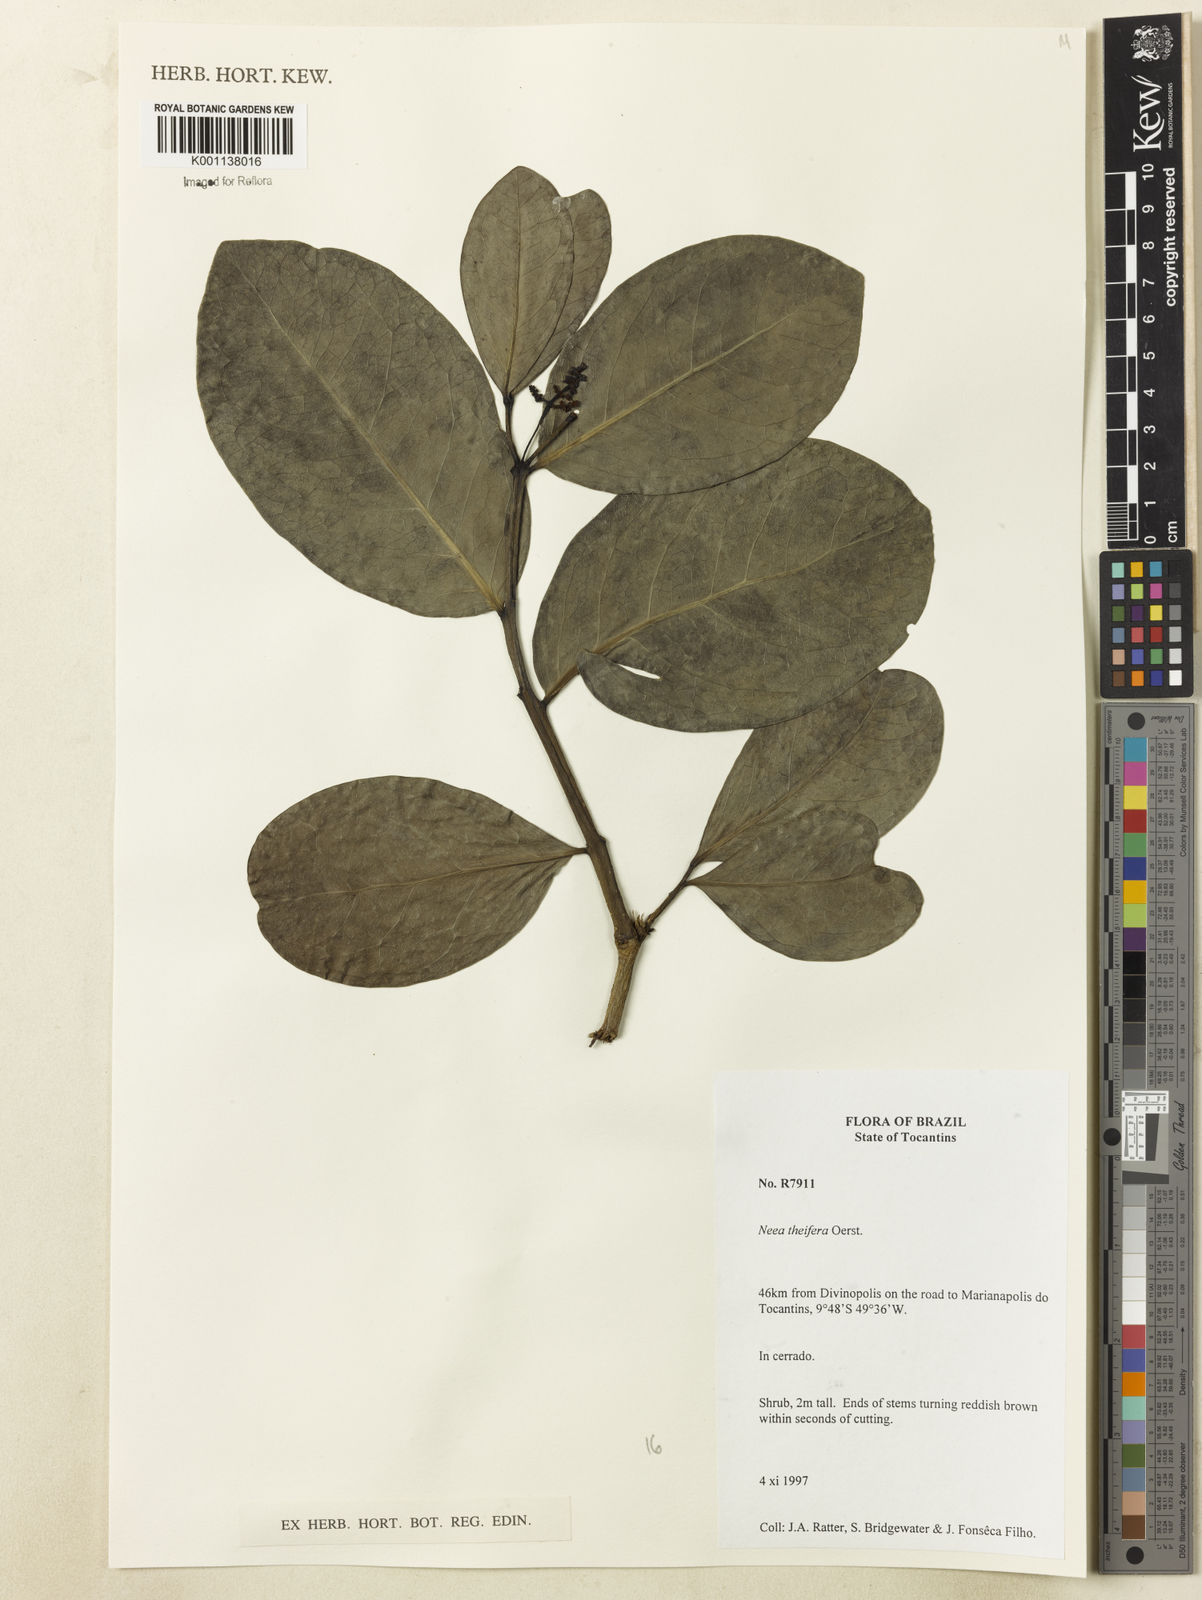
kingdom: Plantae
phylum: Tracheophyta
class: Magnoliopsida
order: Caryophyllales
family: Nyctaginaceae
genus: Neea
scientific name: Neea theifera
